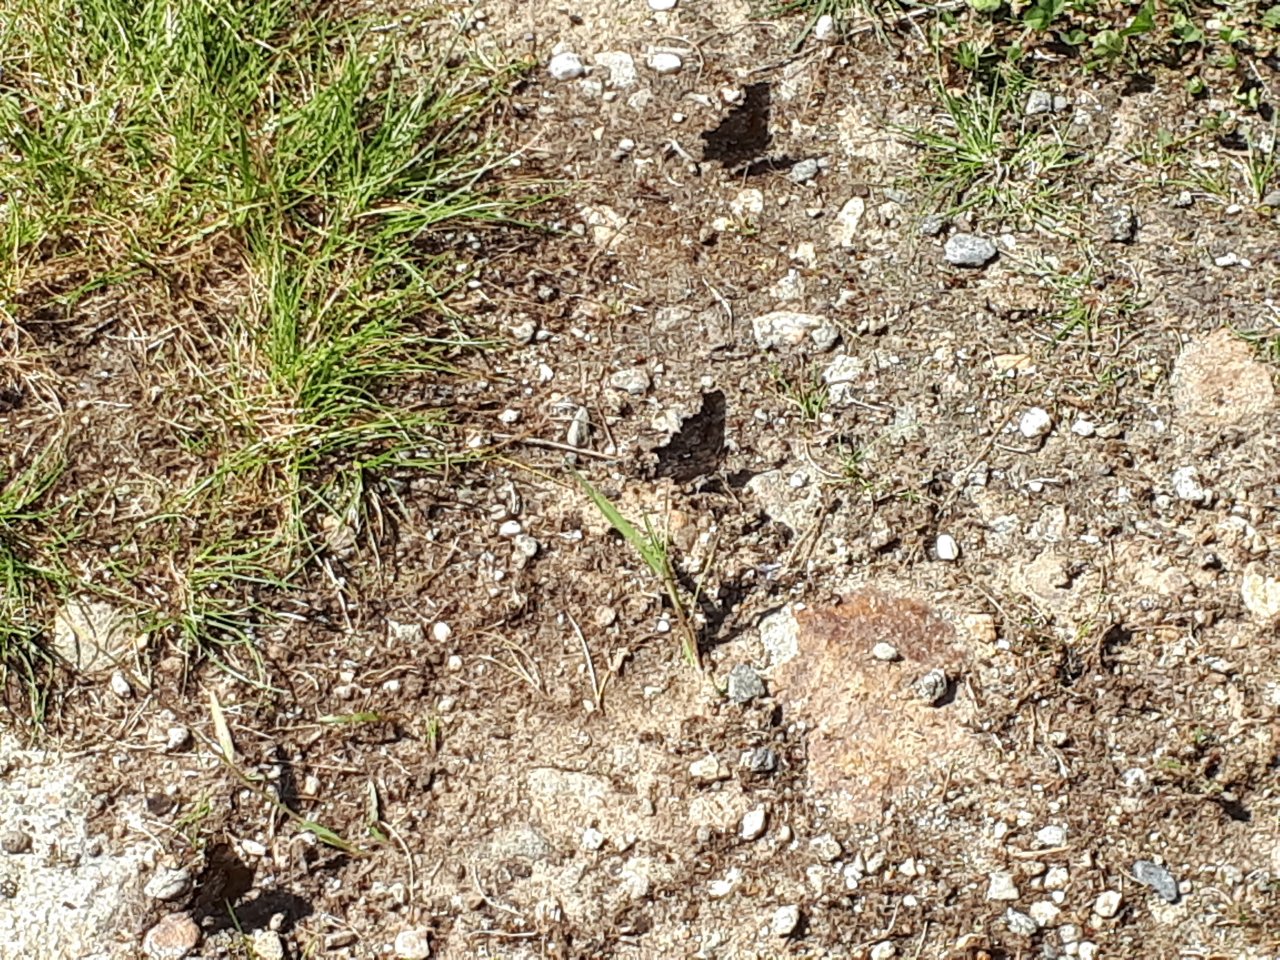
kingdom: Animalia
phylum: Arthropoda
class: Insecta
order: Lepidoptera
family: Nymphalidae
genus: Polygonia
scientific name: Polygonia oreas
